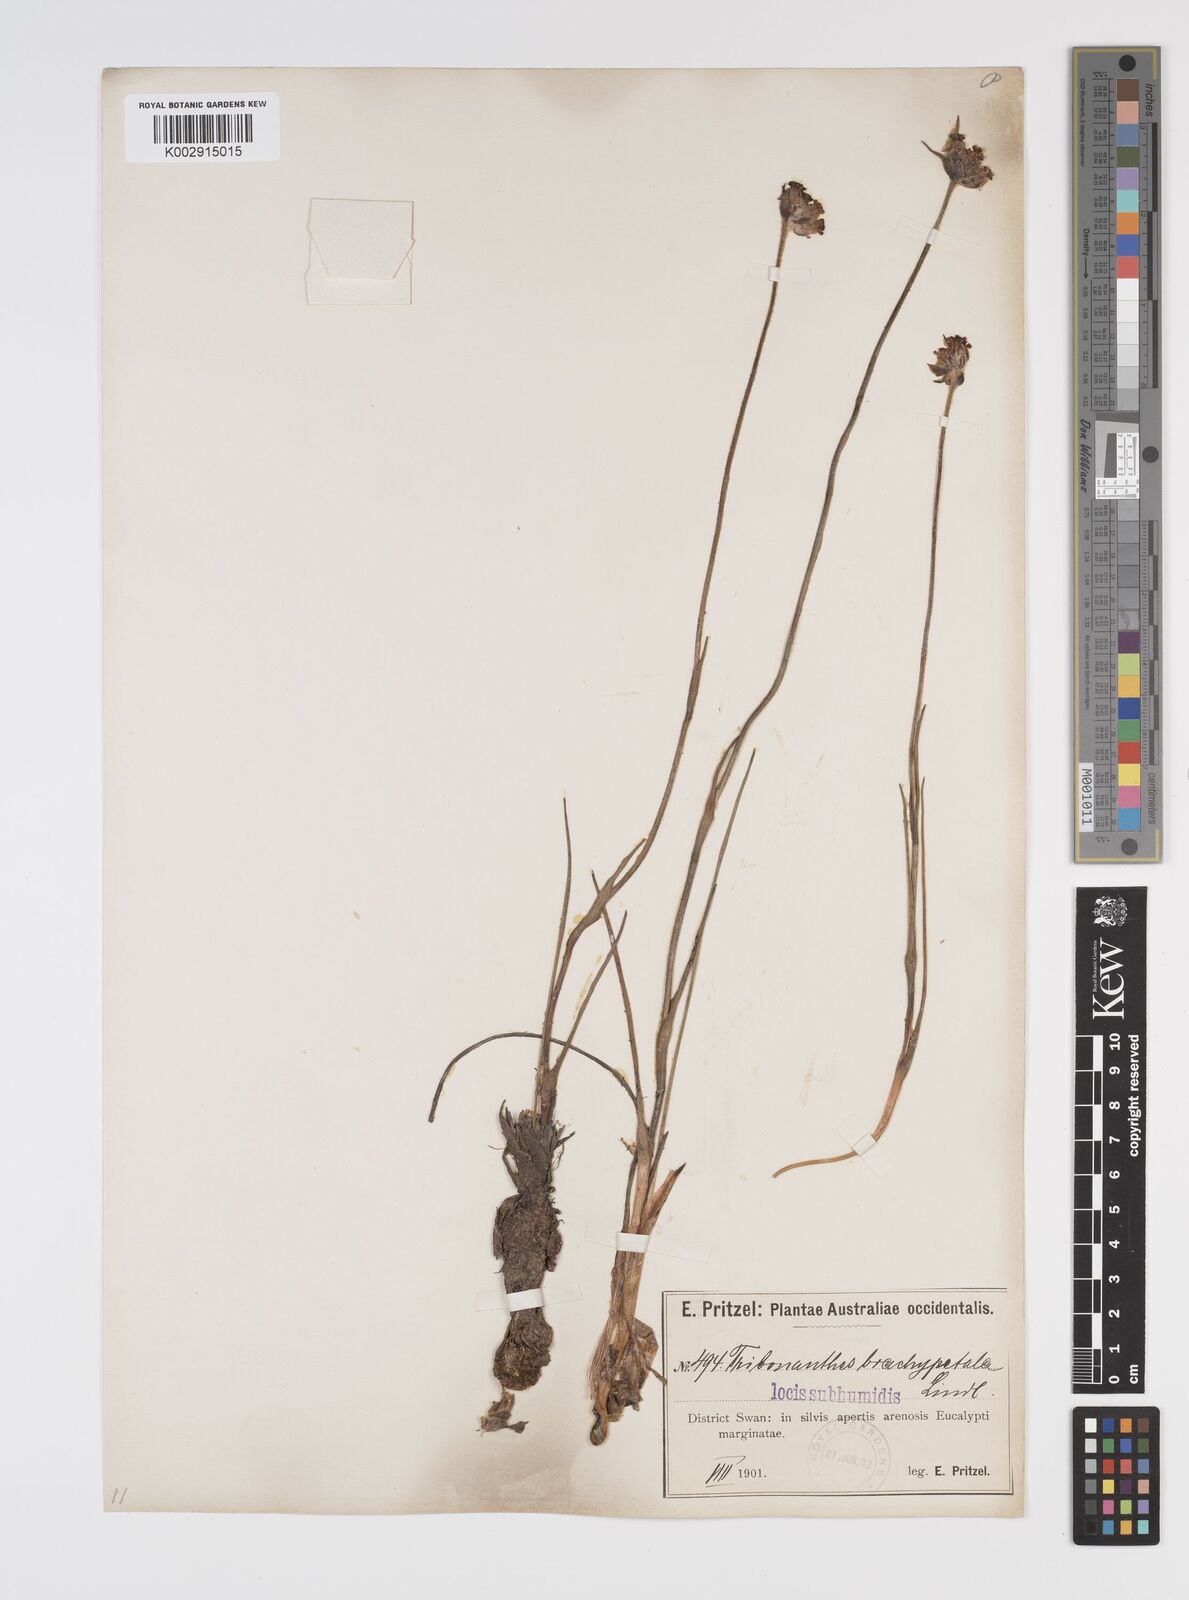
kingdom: Plantae
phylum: Tracheophyta
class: Liliopsida
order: Commelinales
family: Haemodoraceae
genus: Tribonanthes
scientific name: Tribonanthes brachypetala
